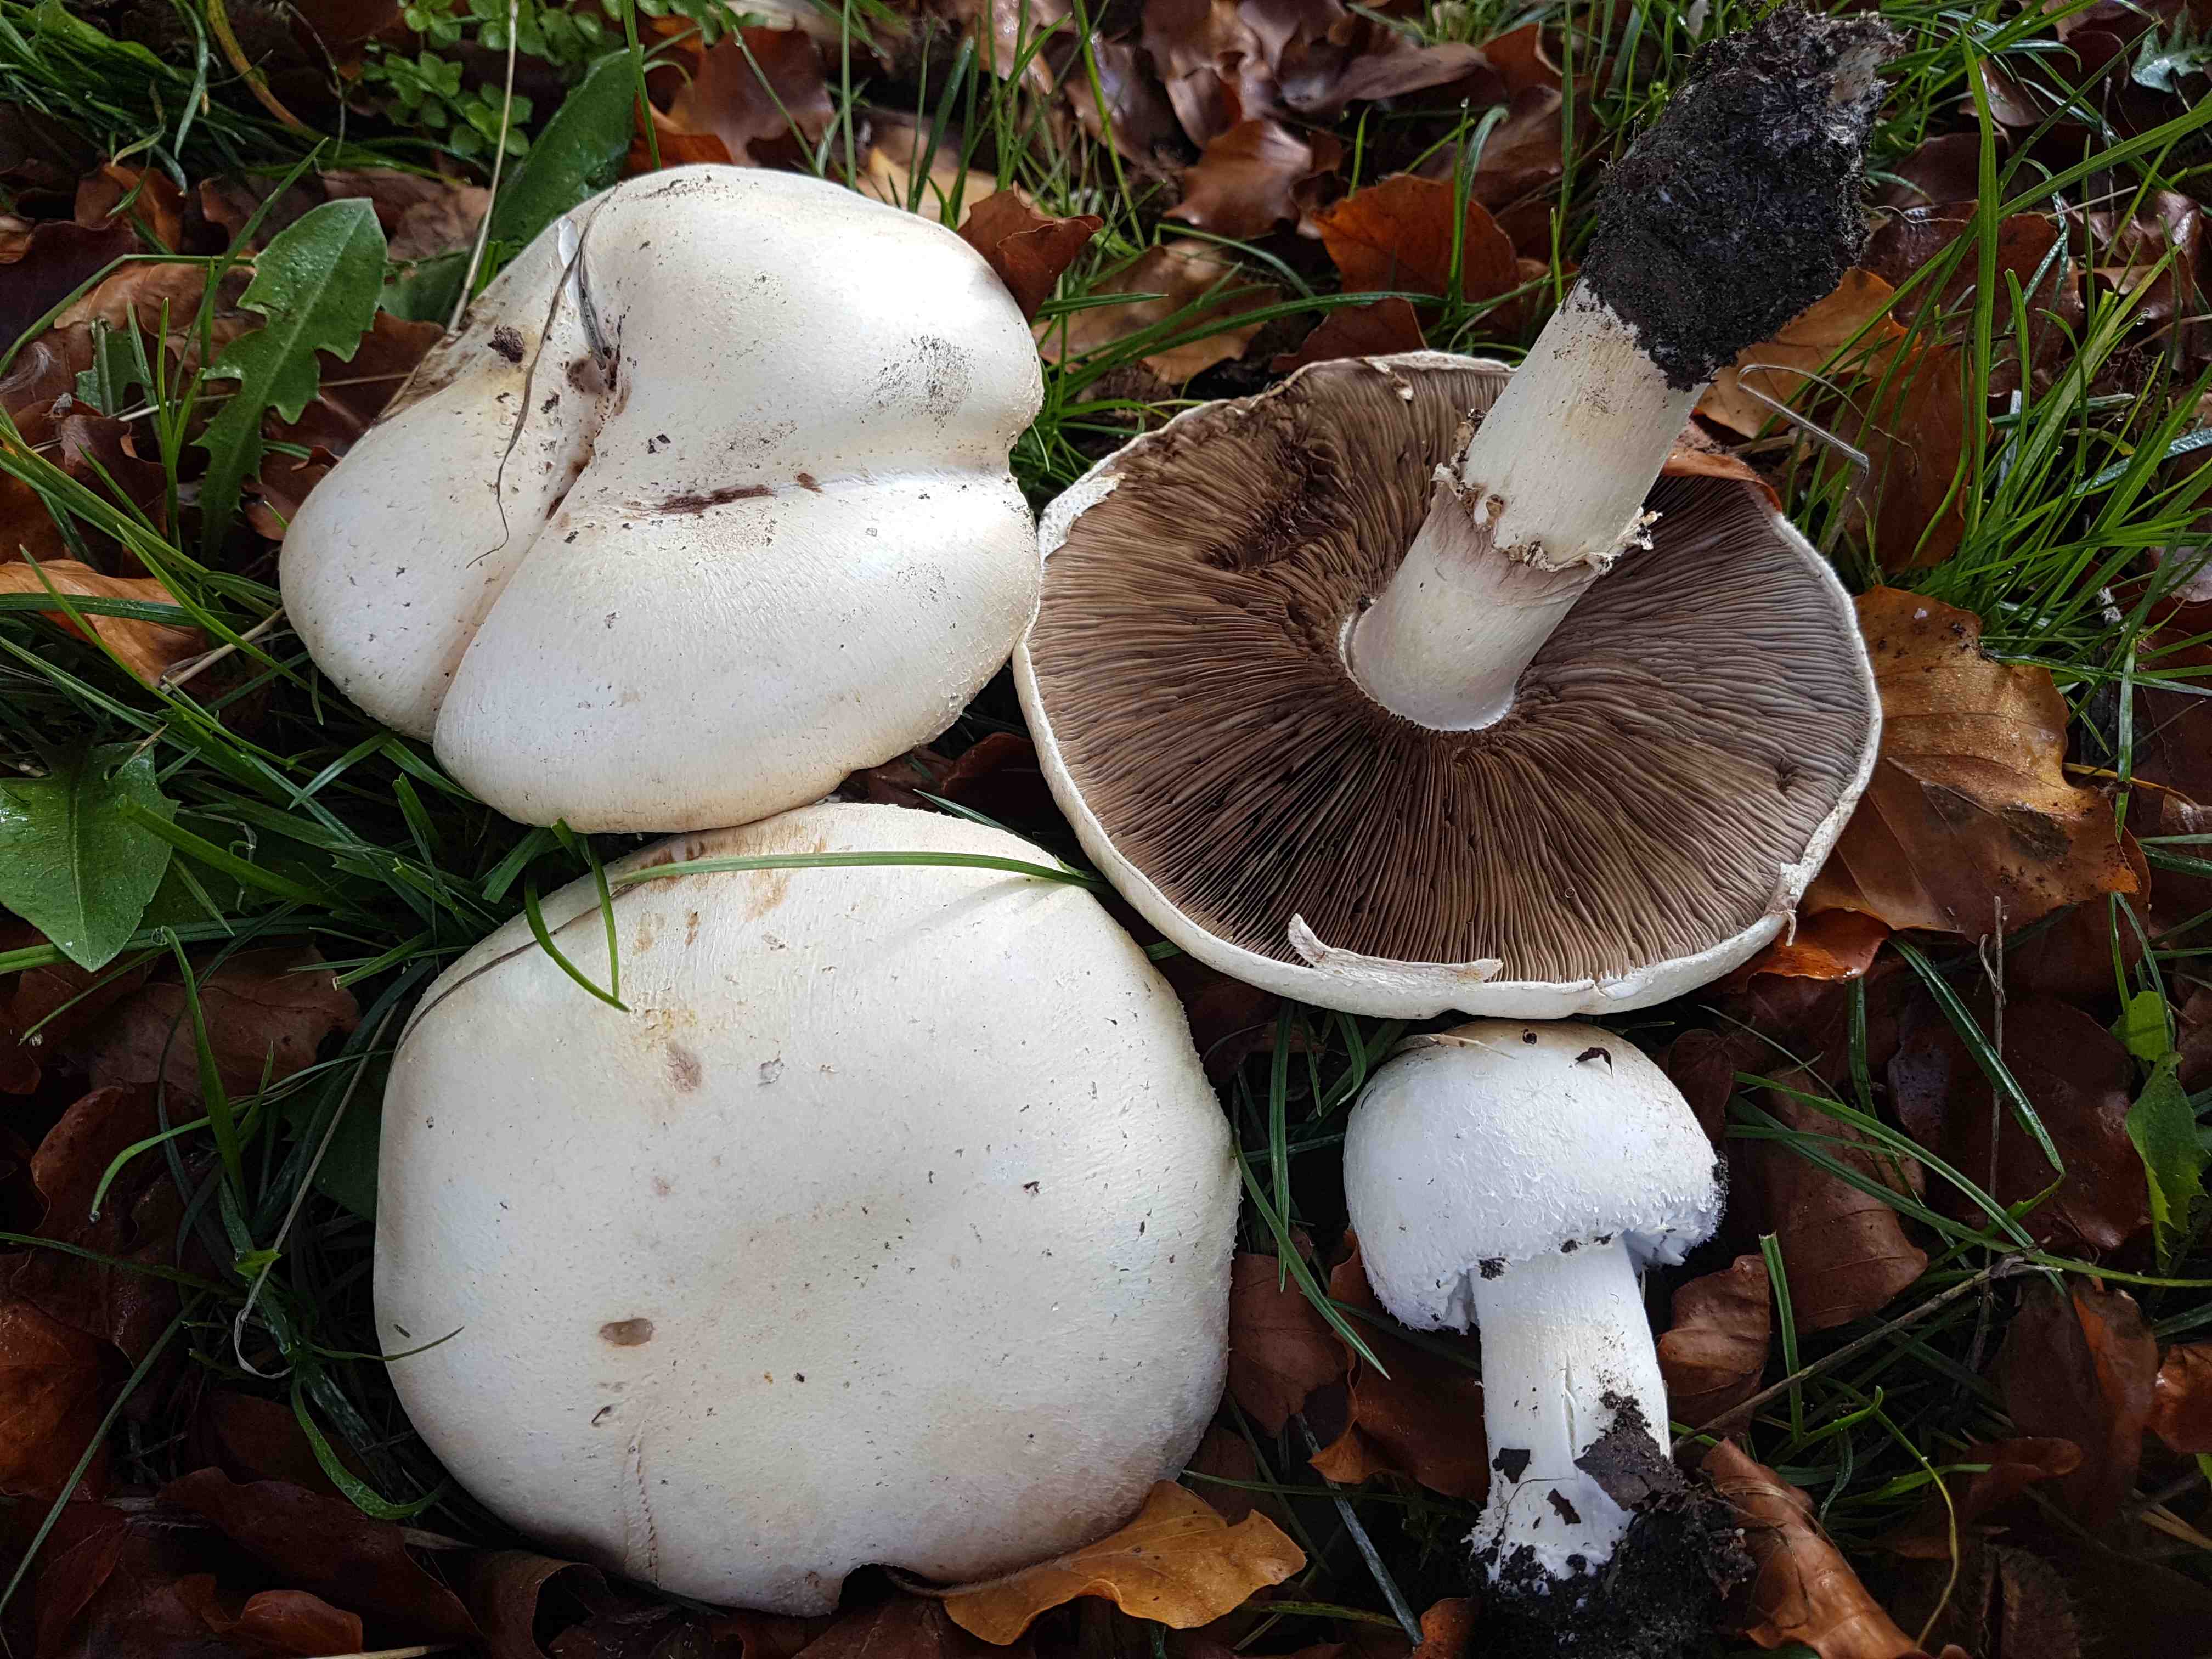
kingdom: Fungi
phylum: Basidiomycota
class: Agaricomycetes
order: Agaricales
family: Agaricaceae
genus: Agaricus
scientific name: Agaricus arvensis
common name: ager-champignon
